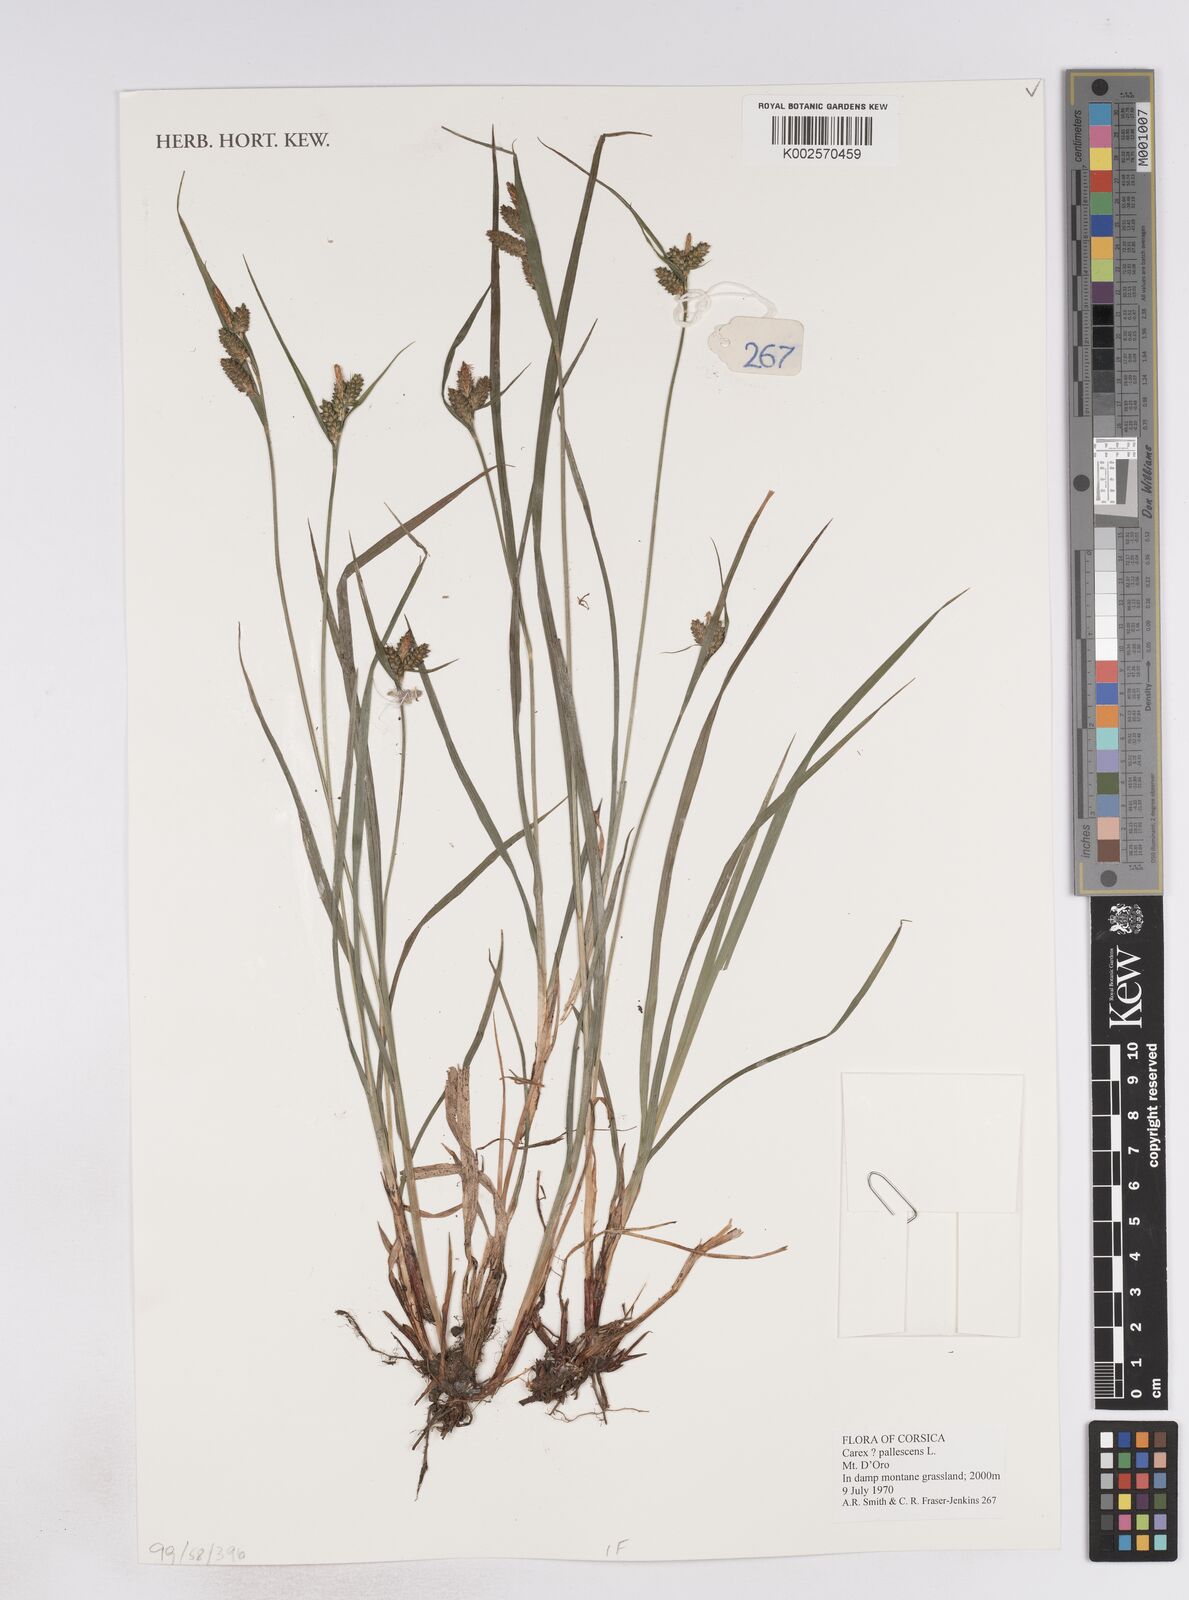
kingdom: Plantae
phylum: Tracheophyta
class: Liliopsida
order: Poales
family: Cyperaceae
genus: Carex
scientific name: Carex pallescens
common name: Pale sedge
